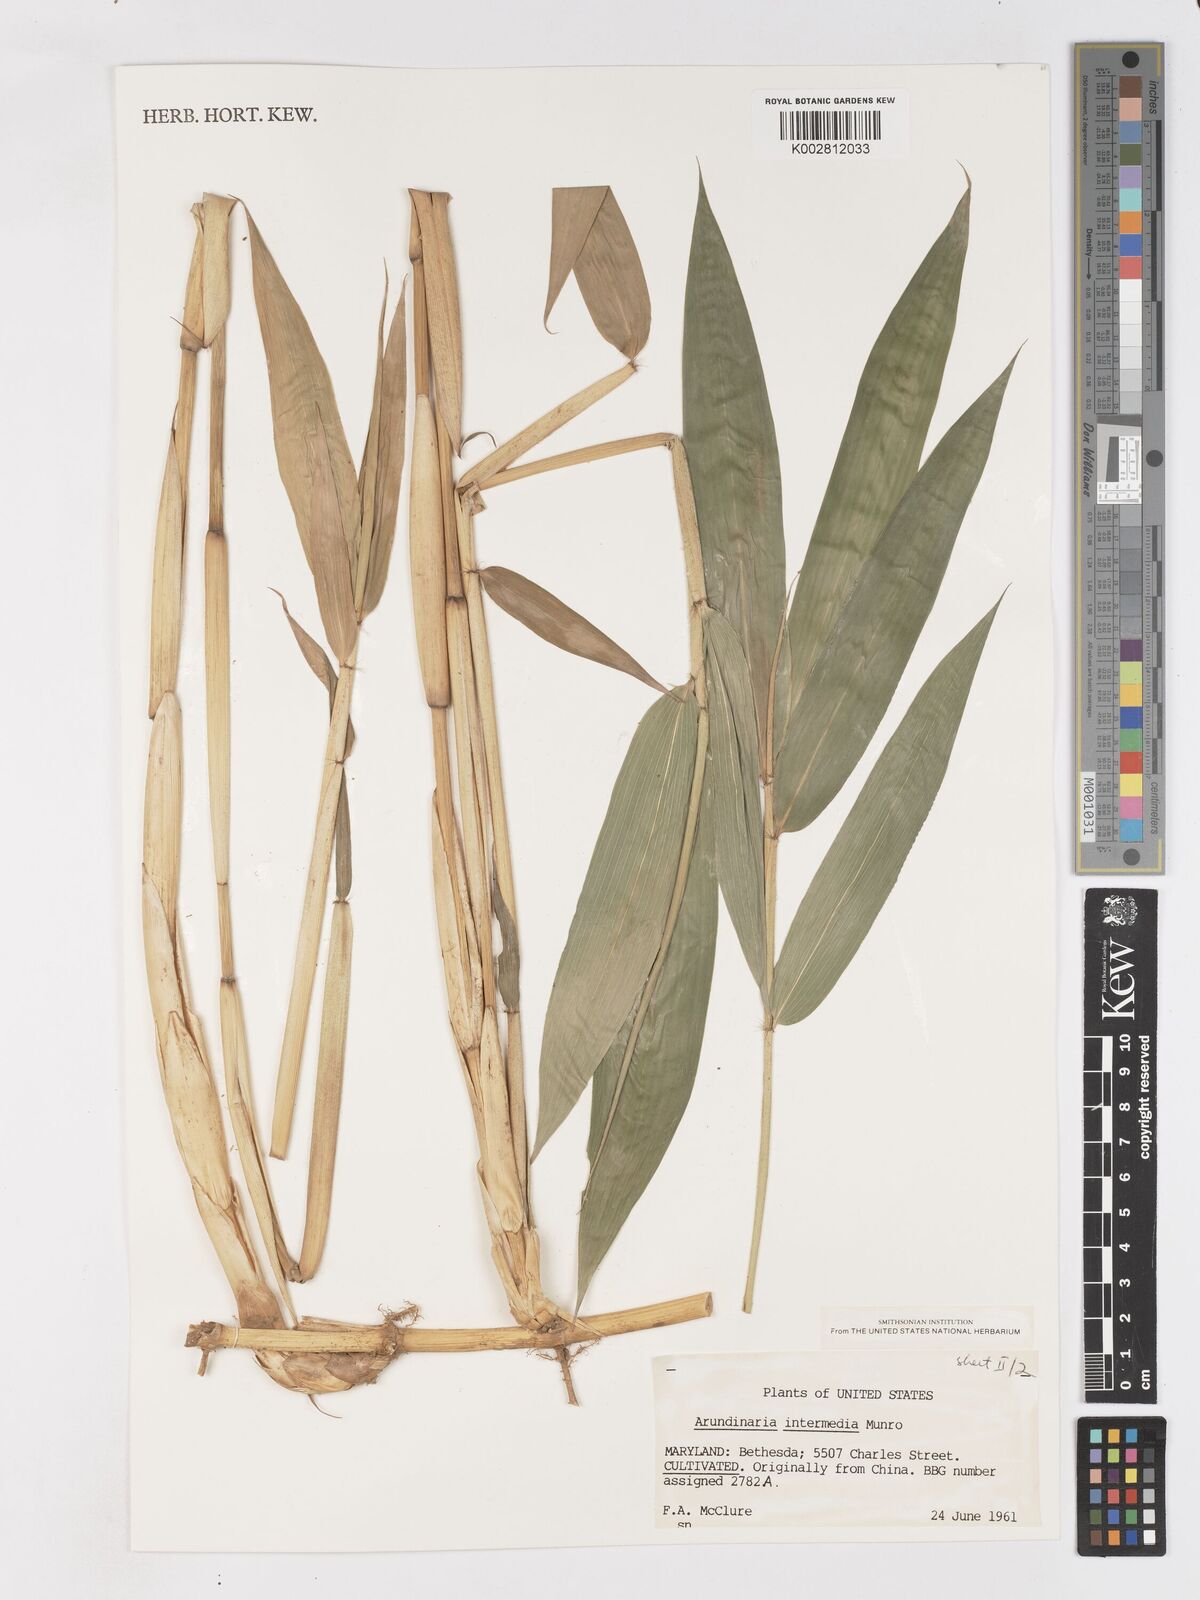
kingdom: Plantae
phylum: Tracheophyta
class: Liliopsida
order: Poales
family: Poaceae
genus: Drepanostachyum
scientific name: Drepanostachyum intermedium
